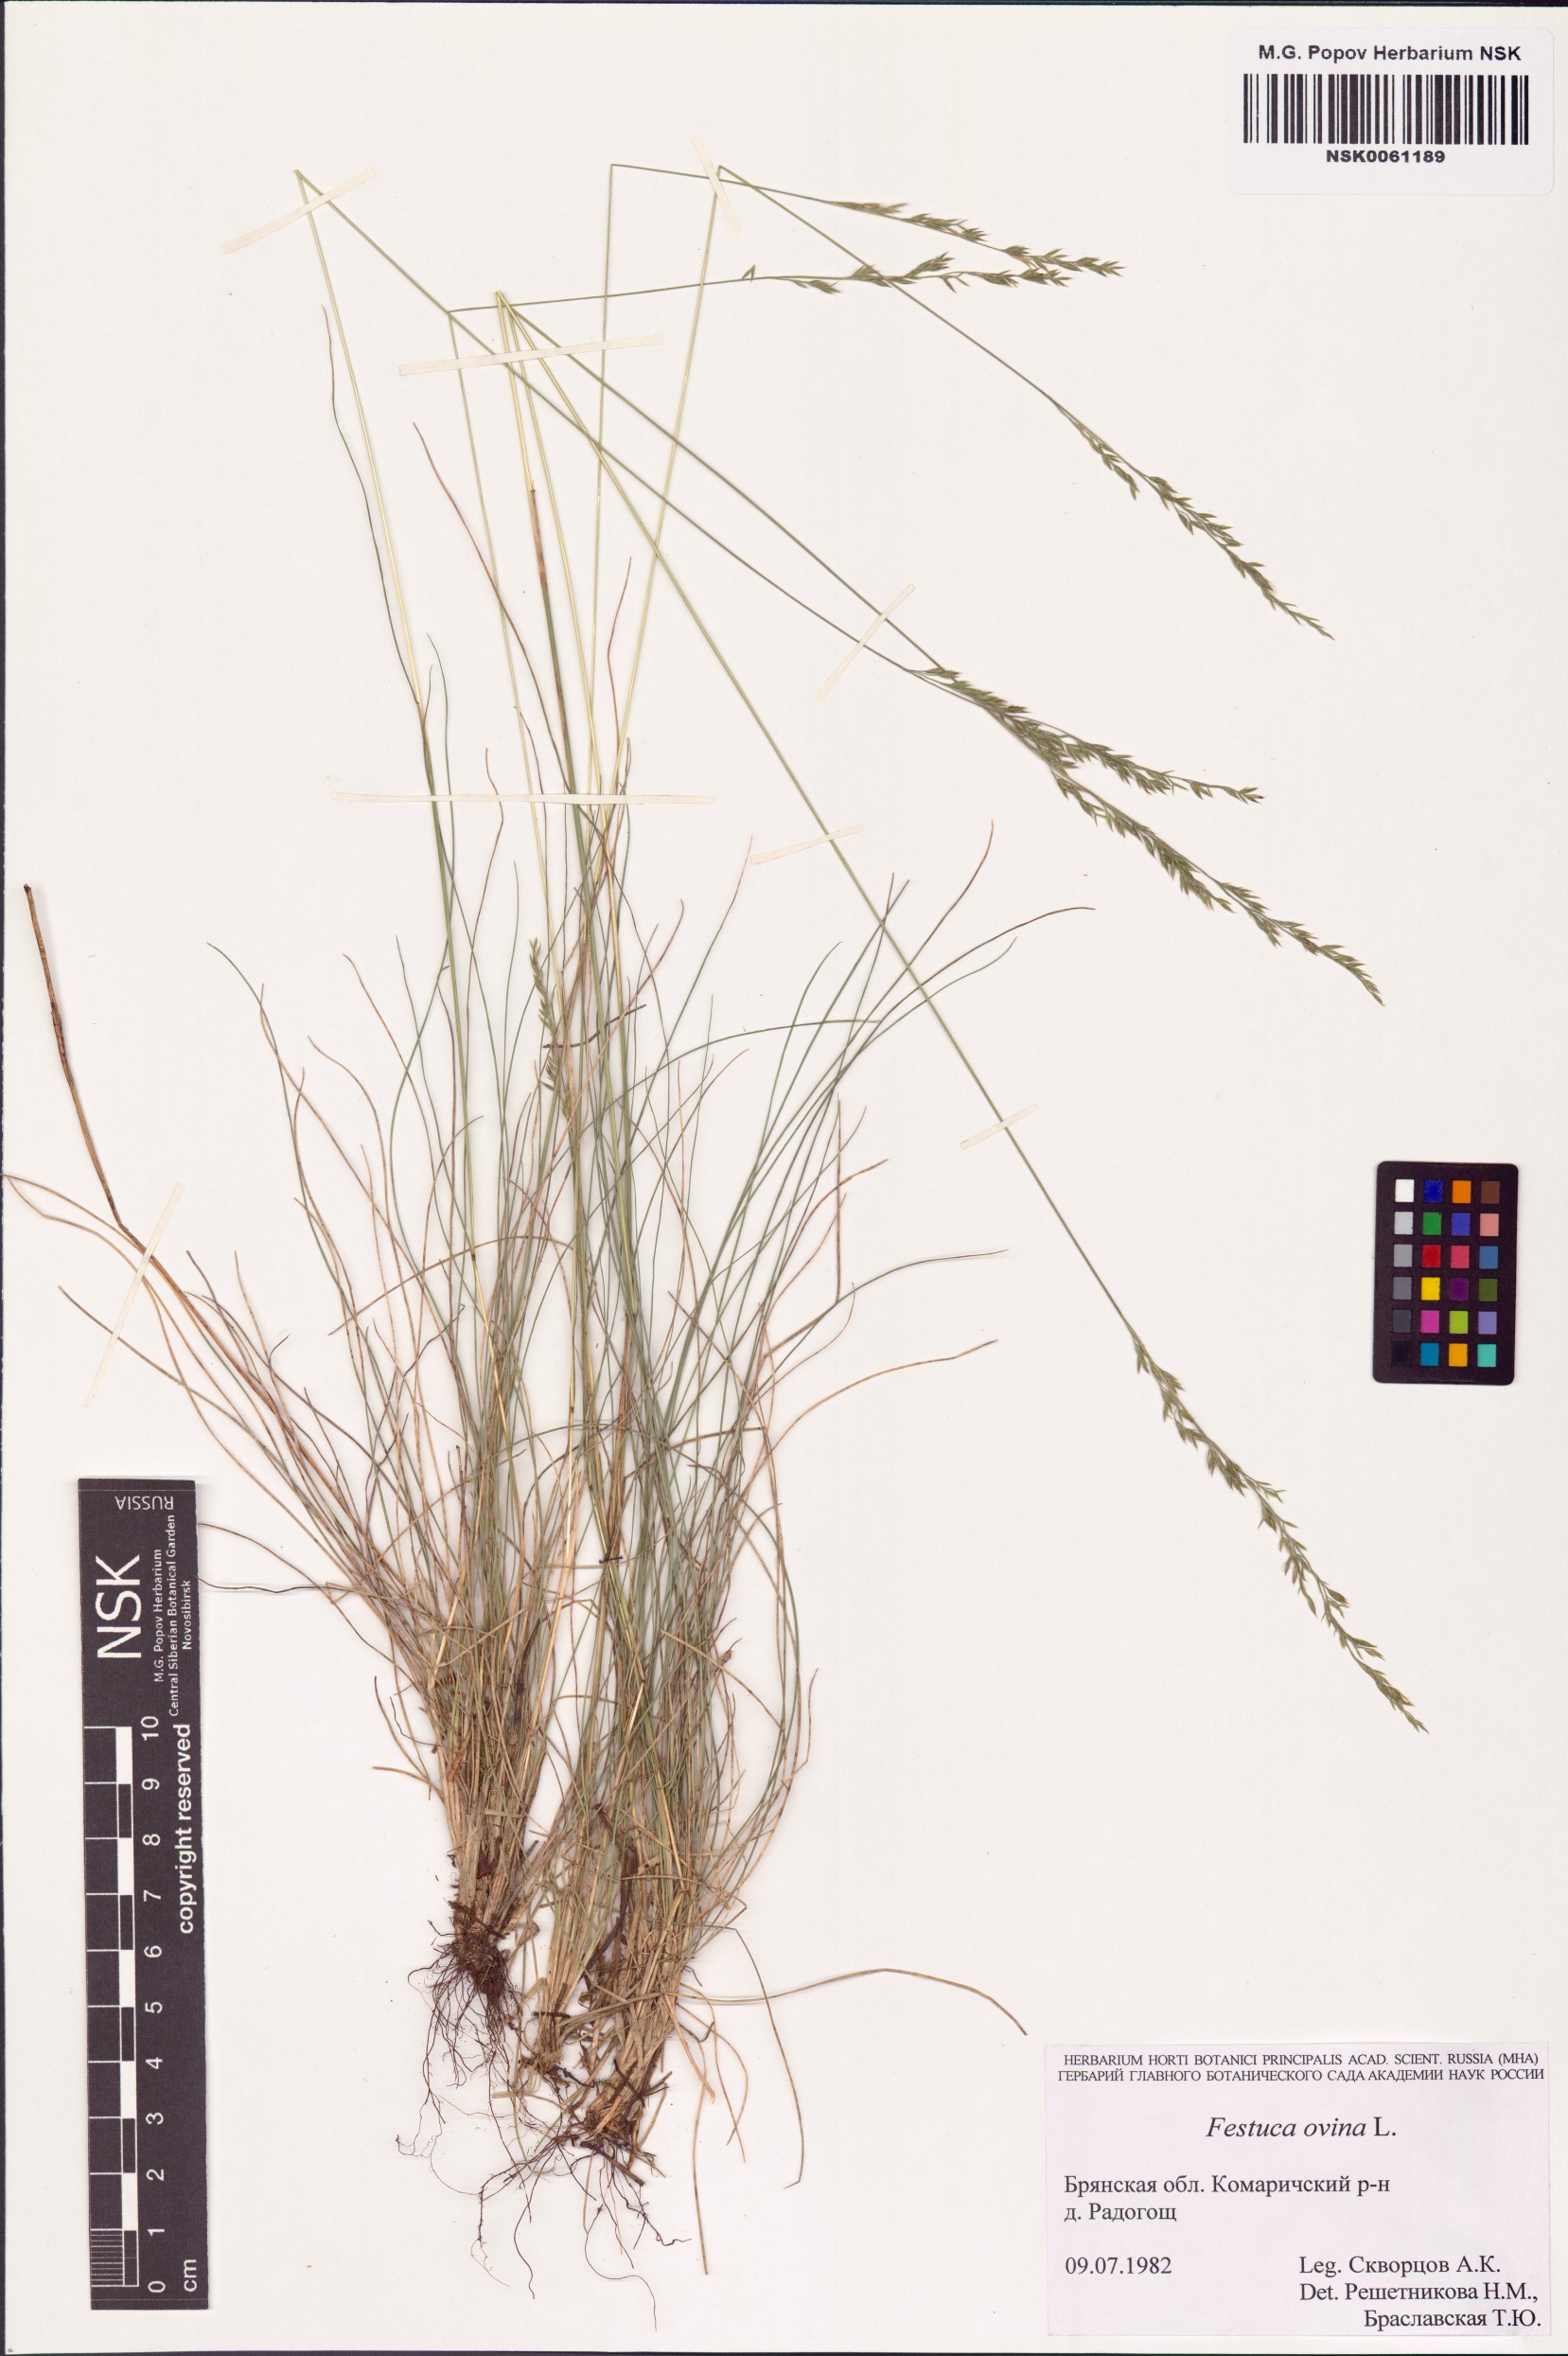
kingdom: Plantae
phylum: Tracheophyta
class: Liliopsida
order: Poales
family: Poaceae
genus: Festuca
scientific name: Festuca ovina
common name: Sheep fescue
